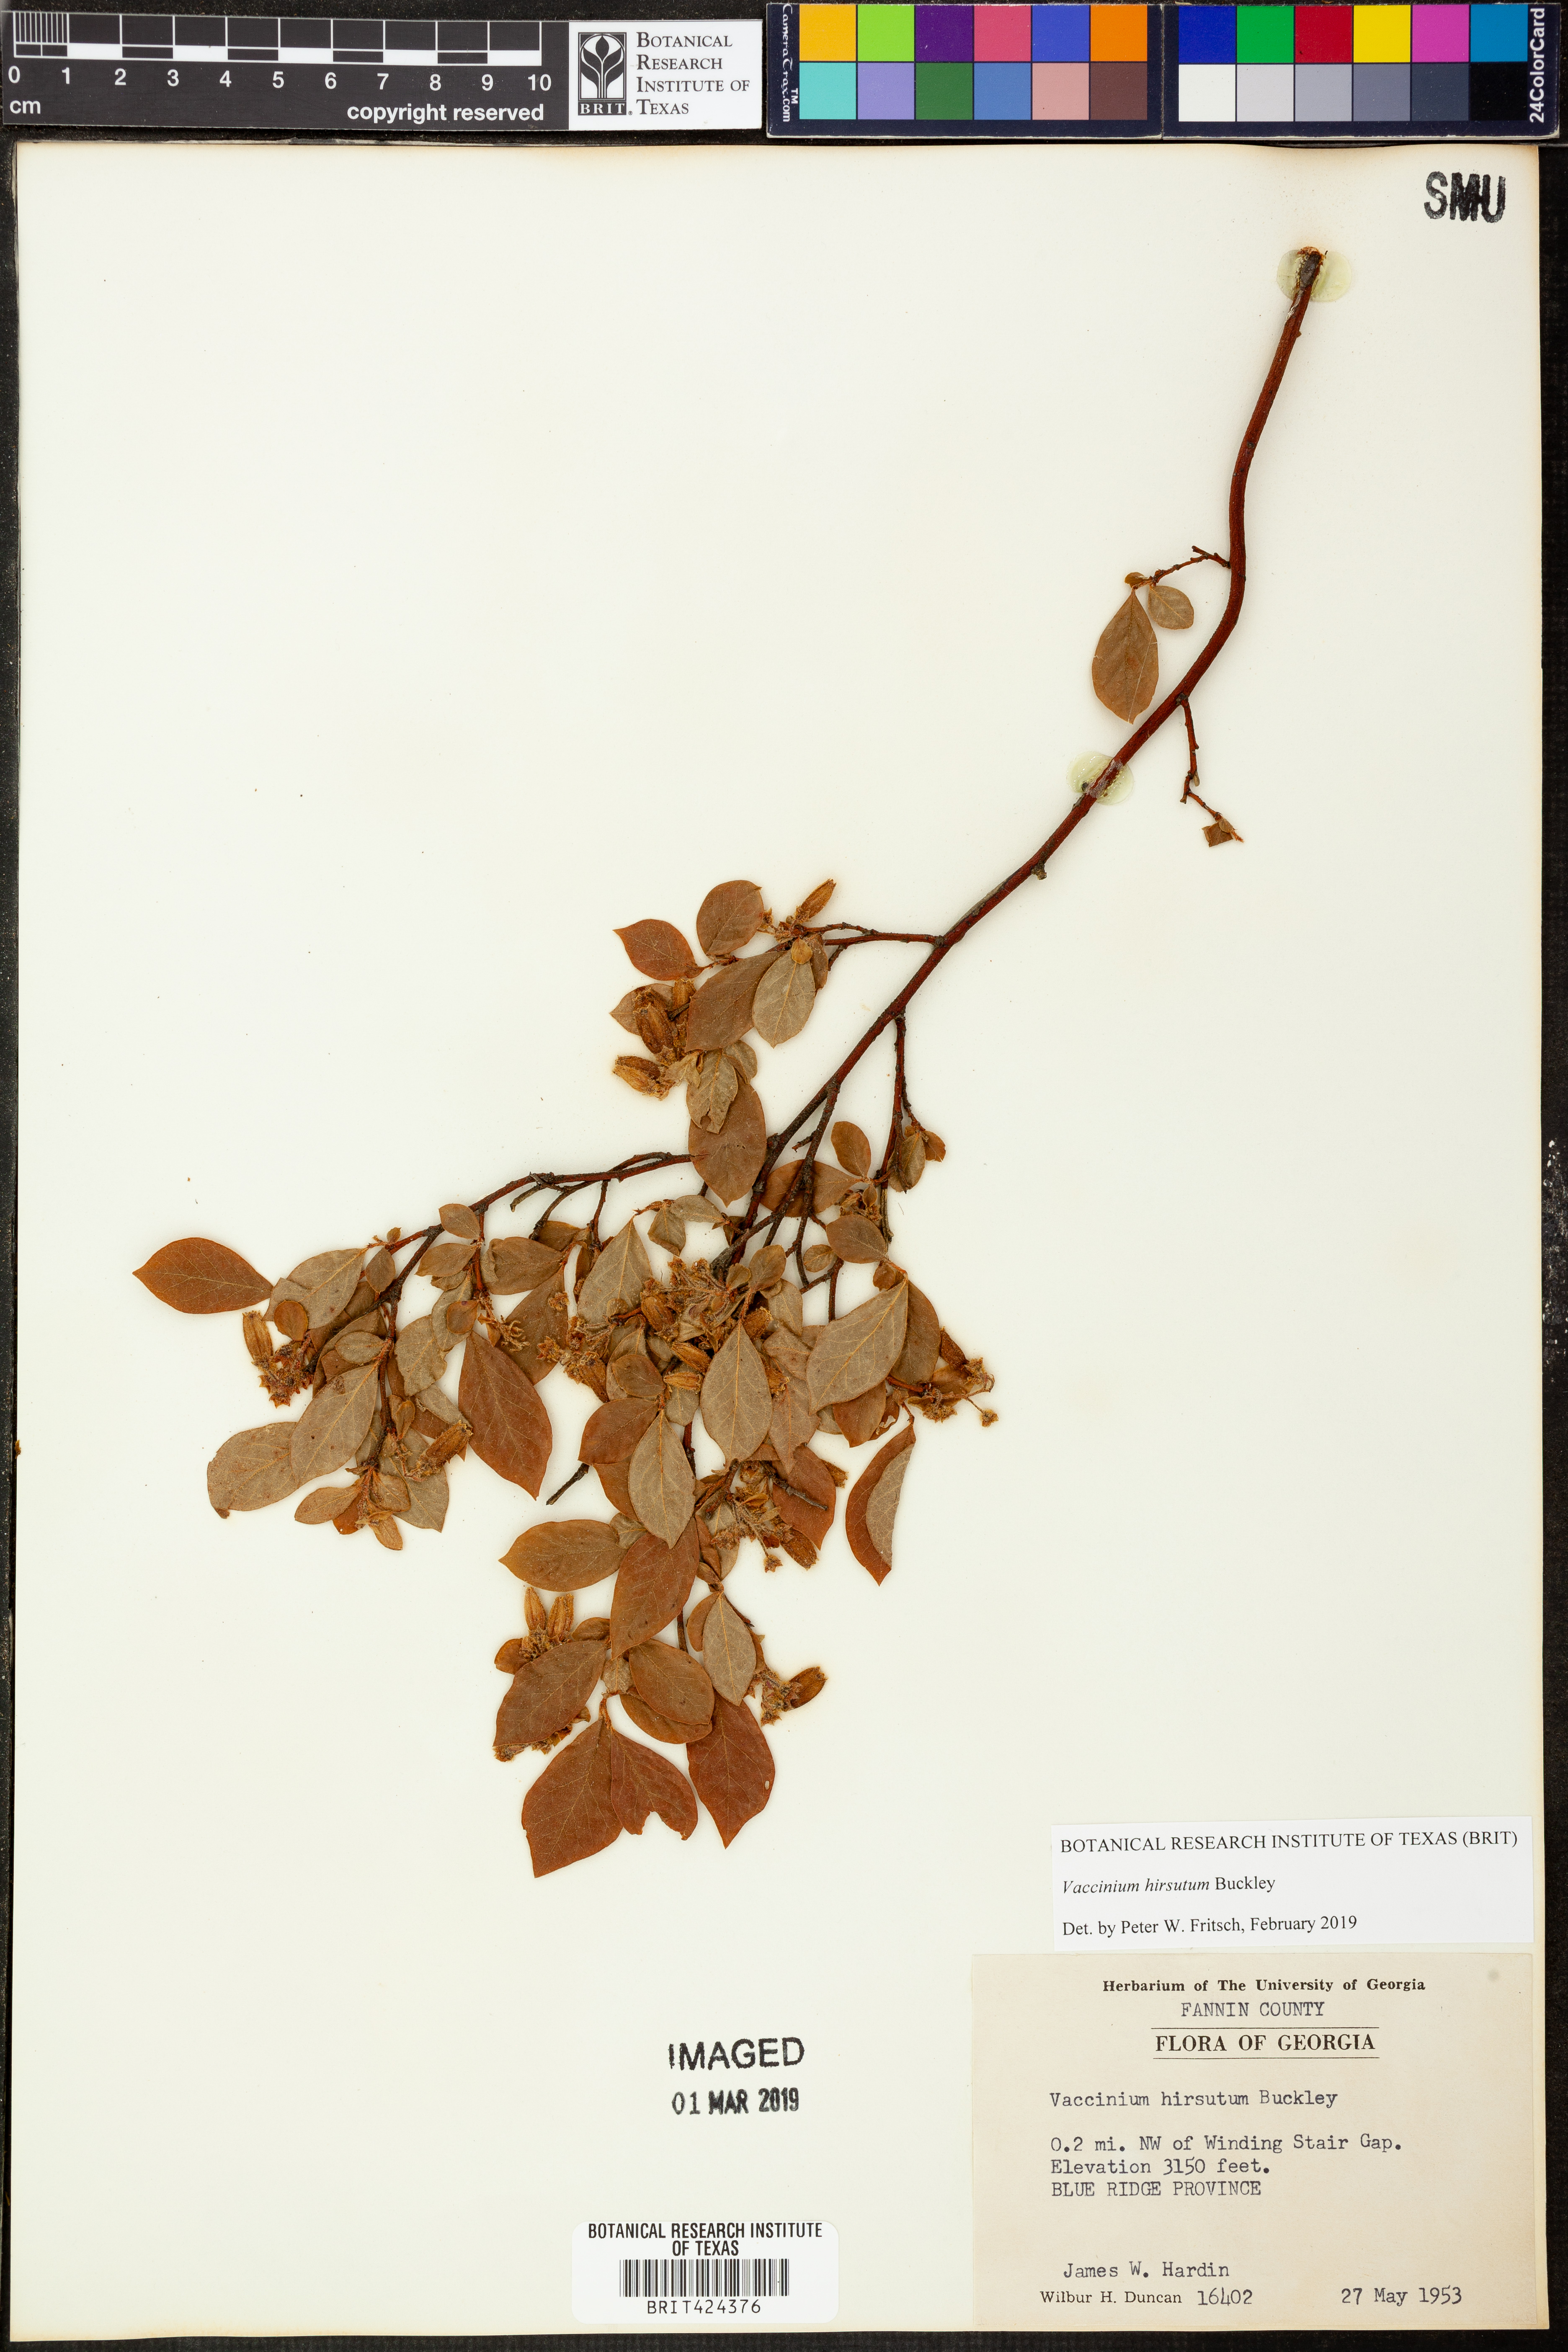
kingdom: Plantae
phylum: Tracheophyta
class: Magnoliopsida
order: Ericales
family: Ericaceae
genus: Vaccinium
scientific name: Vaccinium hirsutum
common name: Woolly-berry
